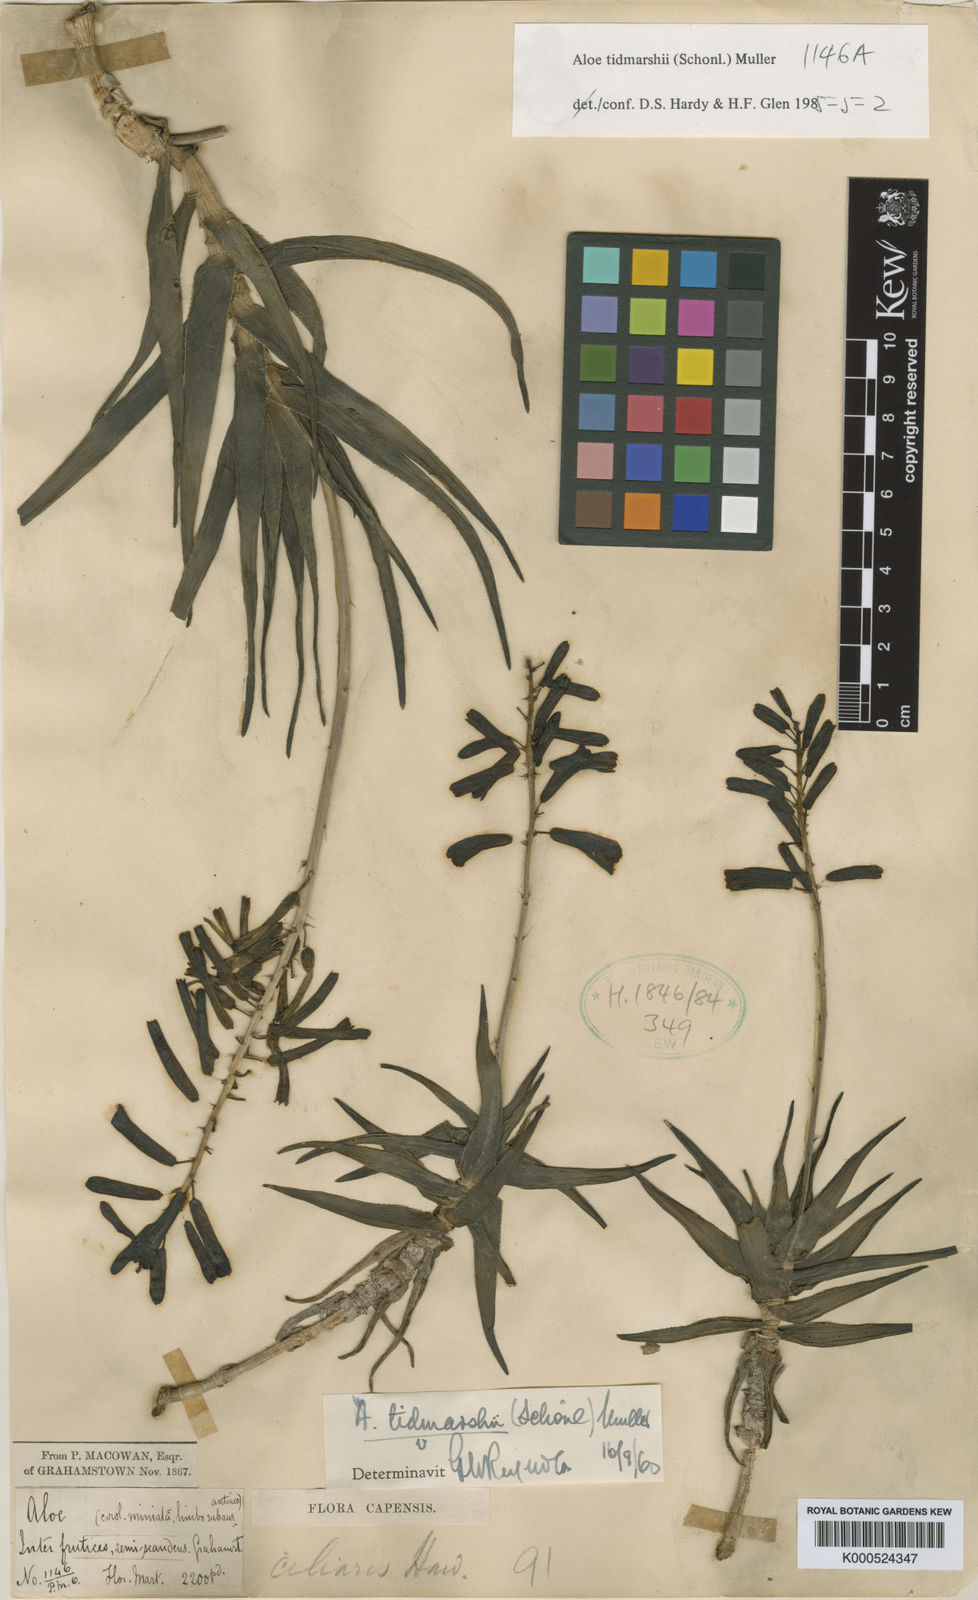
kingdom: Plantae
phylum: Tracheophyta
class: Liliopsida
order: Asparagales
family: Asphodelaceae
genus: Aloe
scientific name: Aloe
